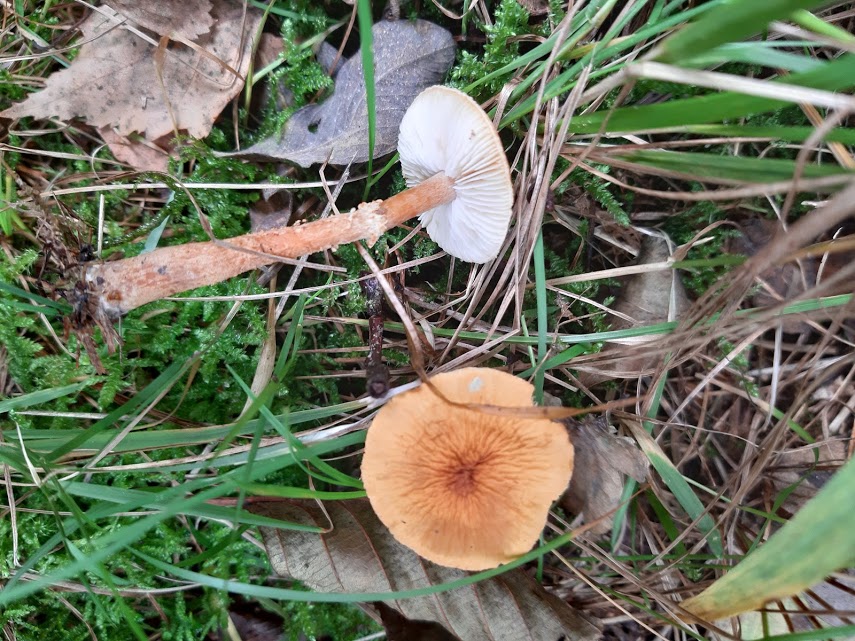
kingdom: Fungi
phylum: Basidiomycota
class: Agaricomycetes
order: Agaricales
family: Tricholomataceae
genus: Cystoderma
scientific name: Cystoderma amianthinum
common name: okkergul grynhat
